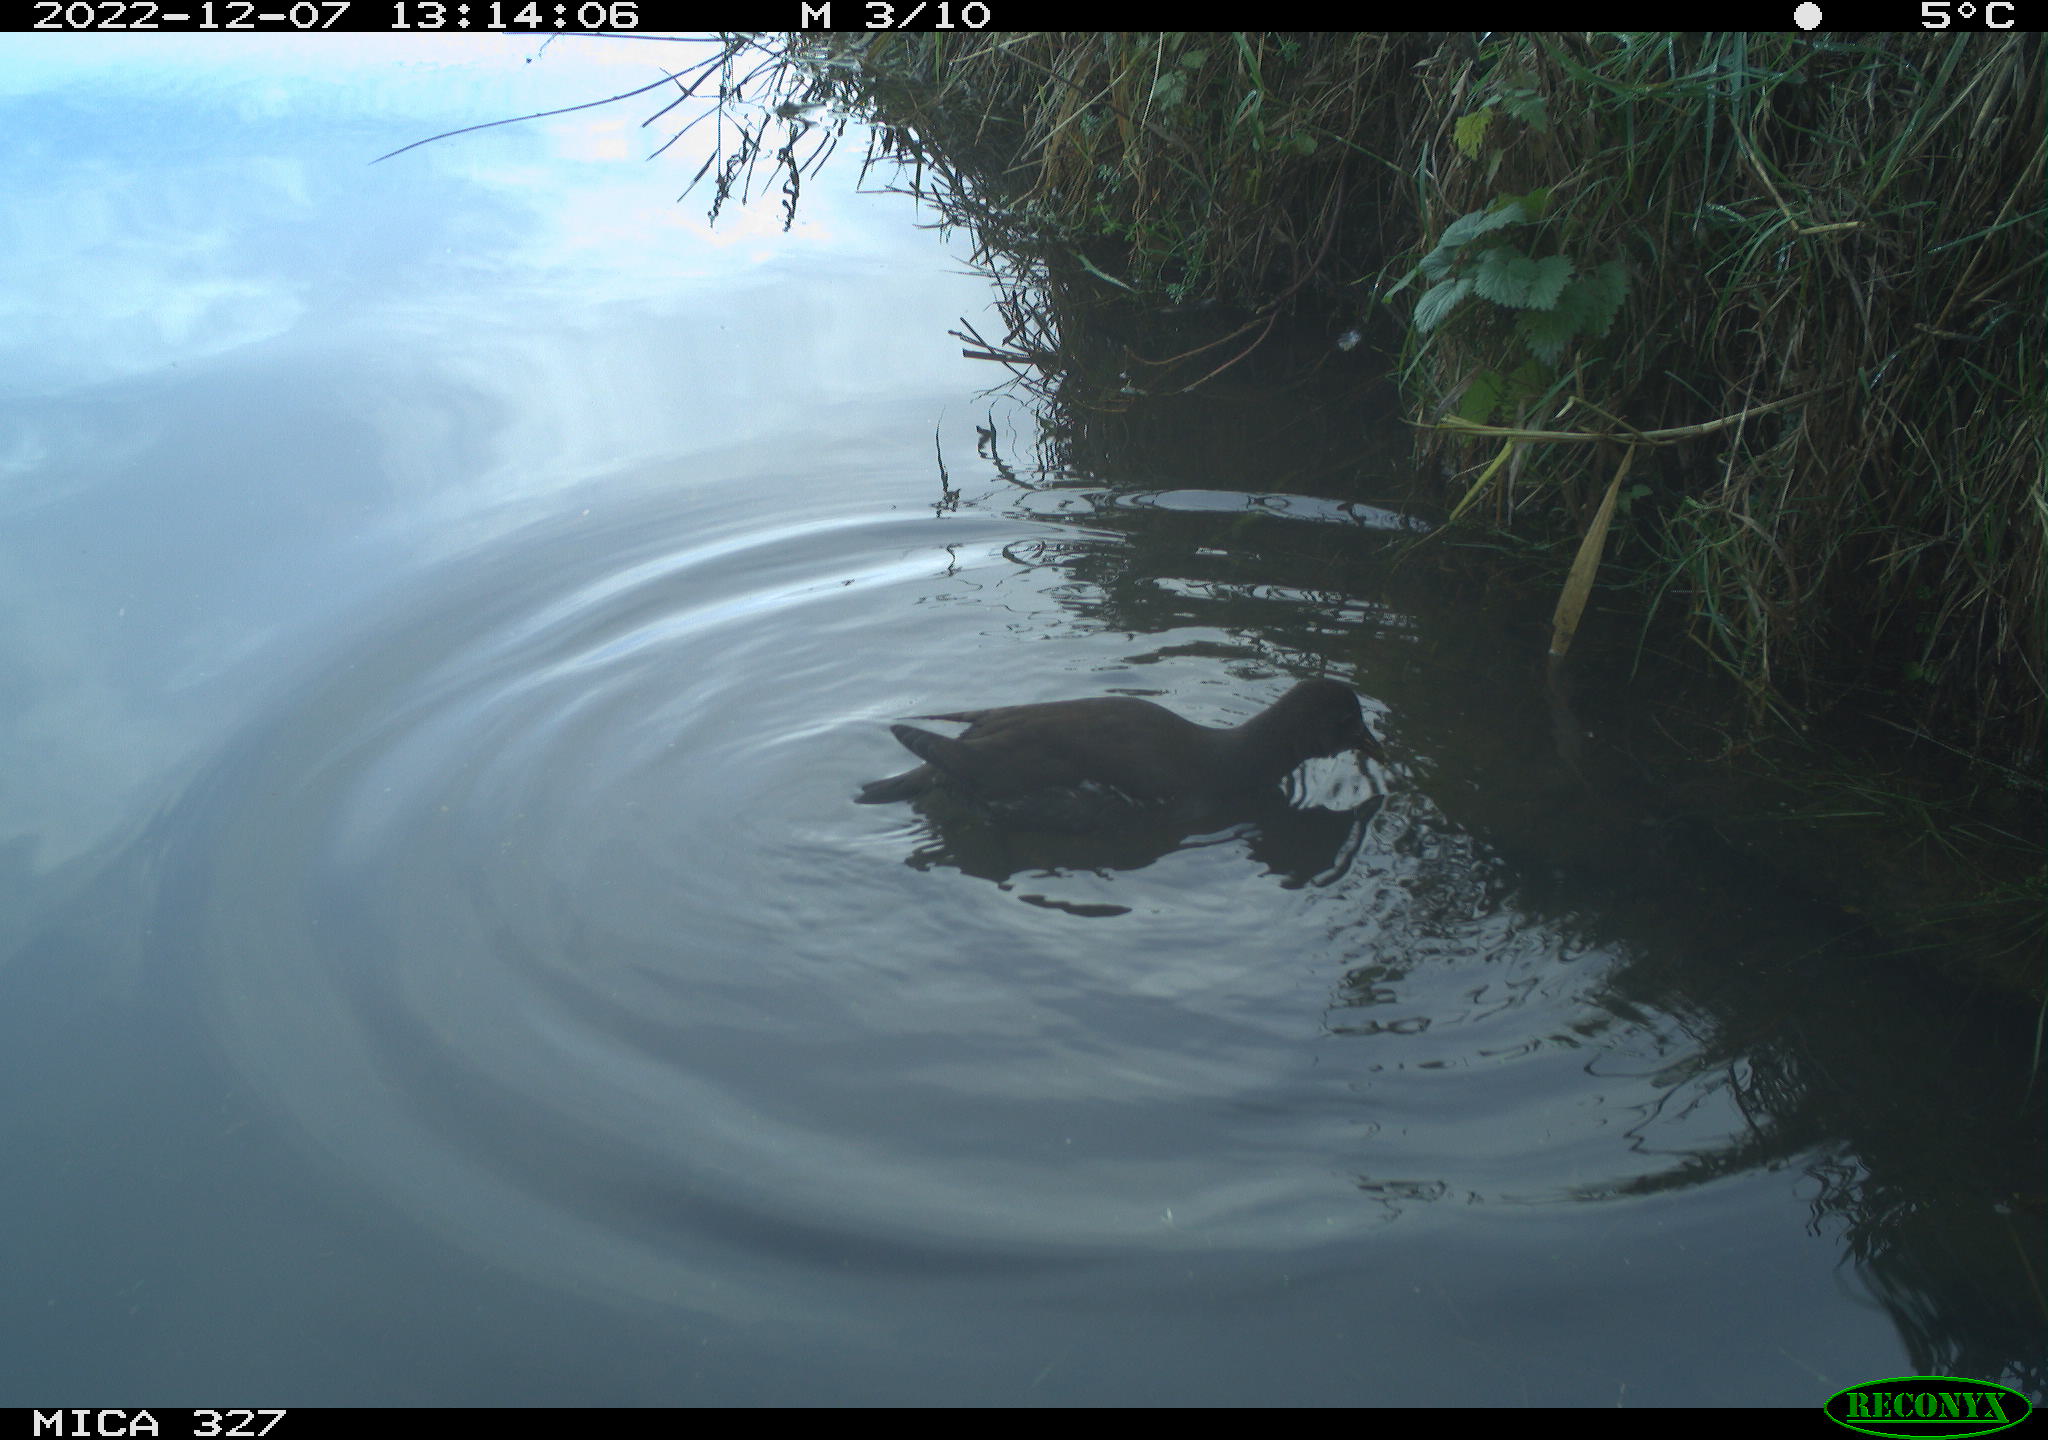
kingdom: Animalia
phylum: Chordata
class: Aves
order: Gruiformes
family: Rallidae
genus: Gallinula
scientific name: Gallinula chloropus
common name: Common moorhen
